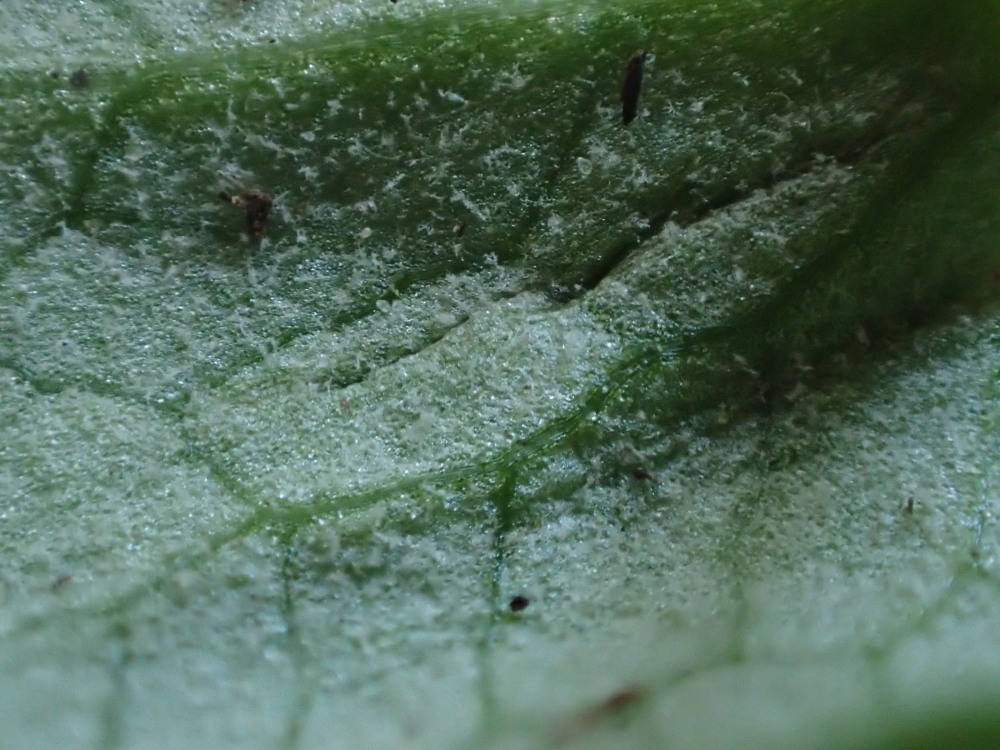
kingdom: Chromista
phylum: Oomycota
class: Peronosporea
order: Peronosporales
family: Peronosporaceae
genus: Peronospora
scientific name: Peronospora ficariae
